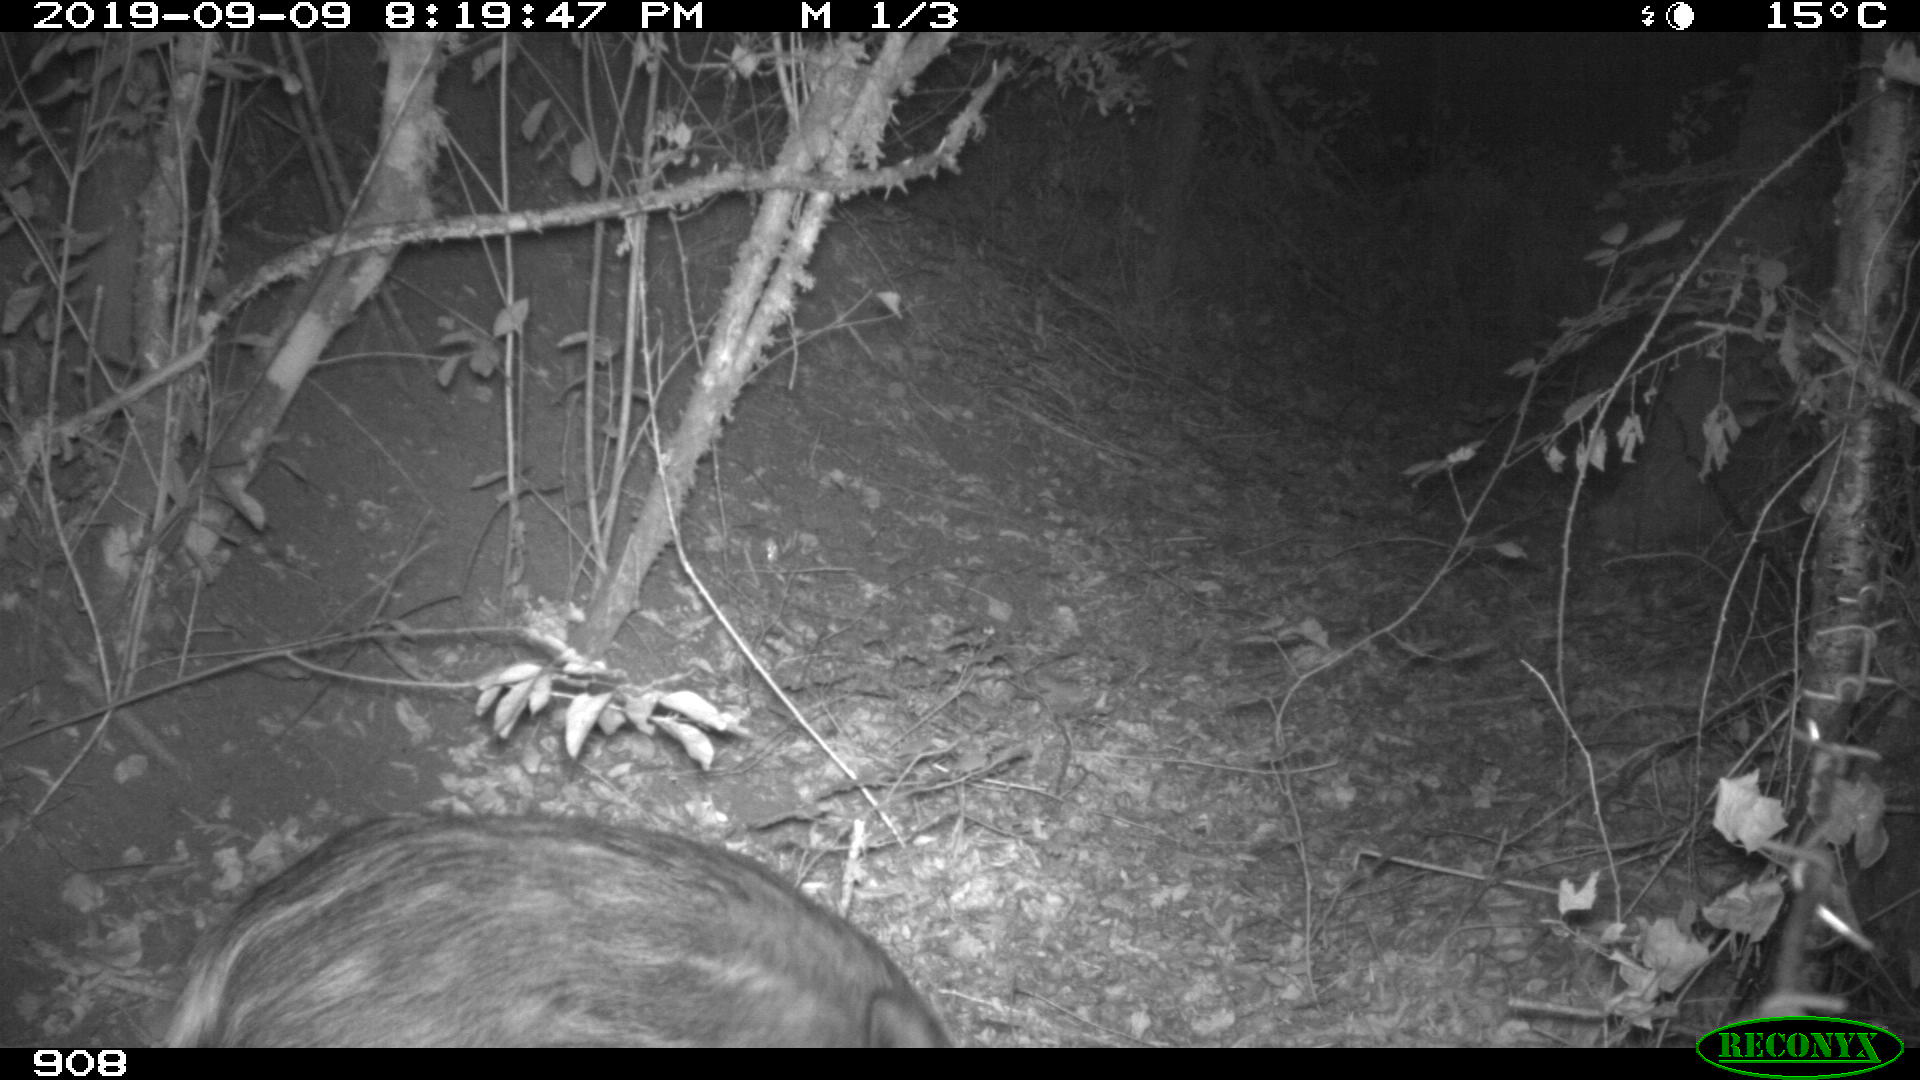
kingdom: Animalia
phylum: Chordata
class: Mammalia
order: Artiodactyla
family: Suidae
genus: Sus
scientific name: Sus scrofa
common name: Wild boar
